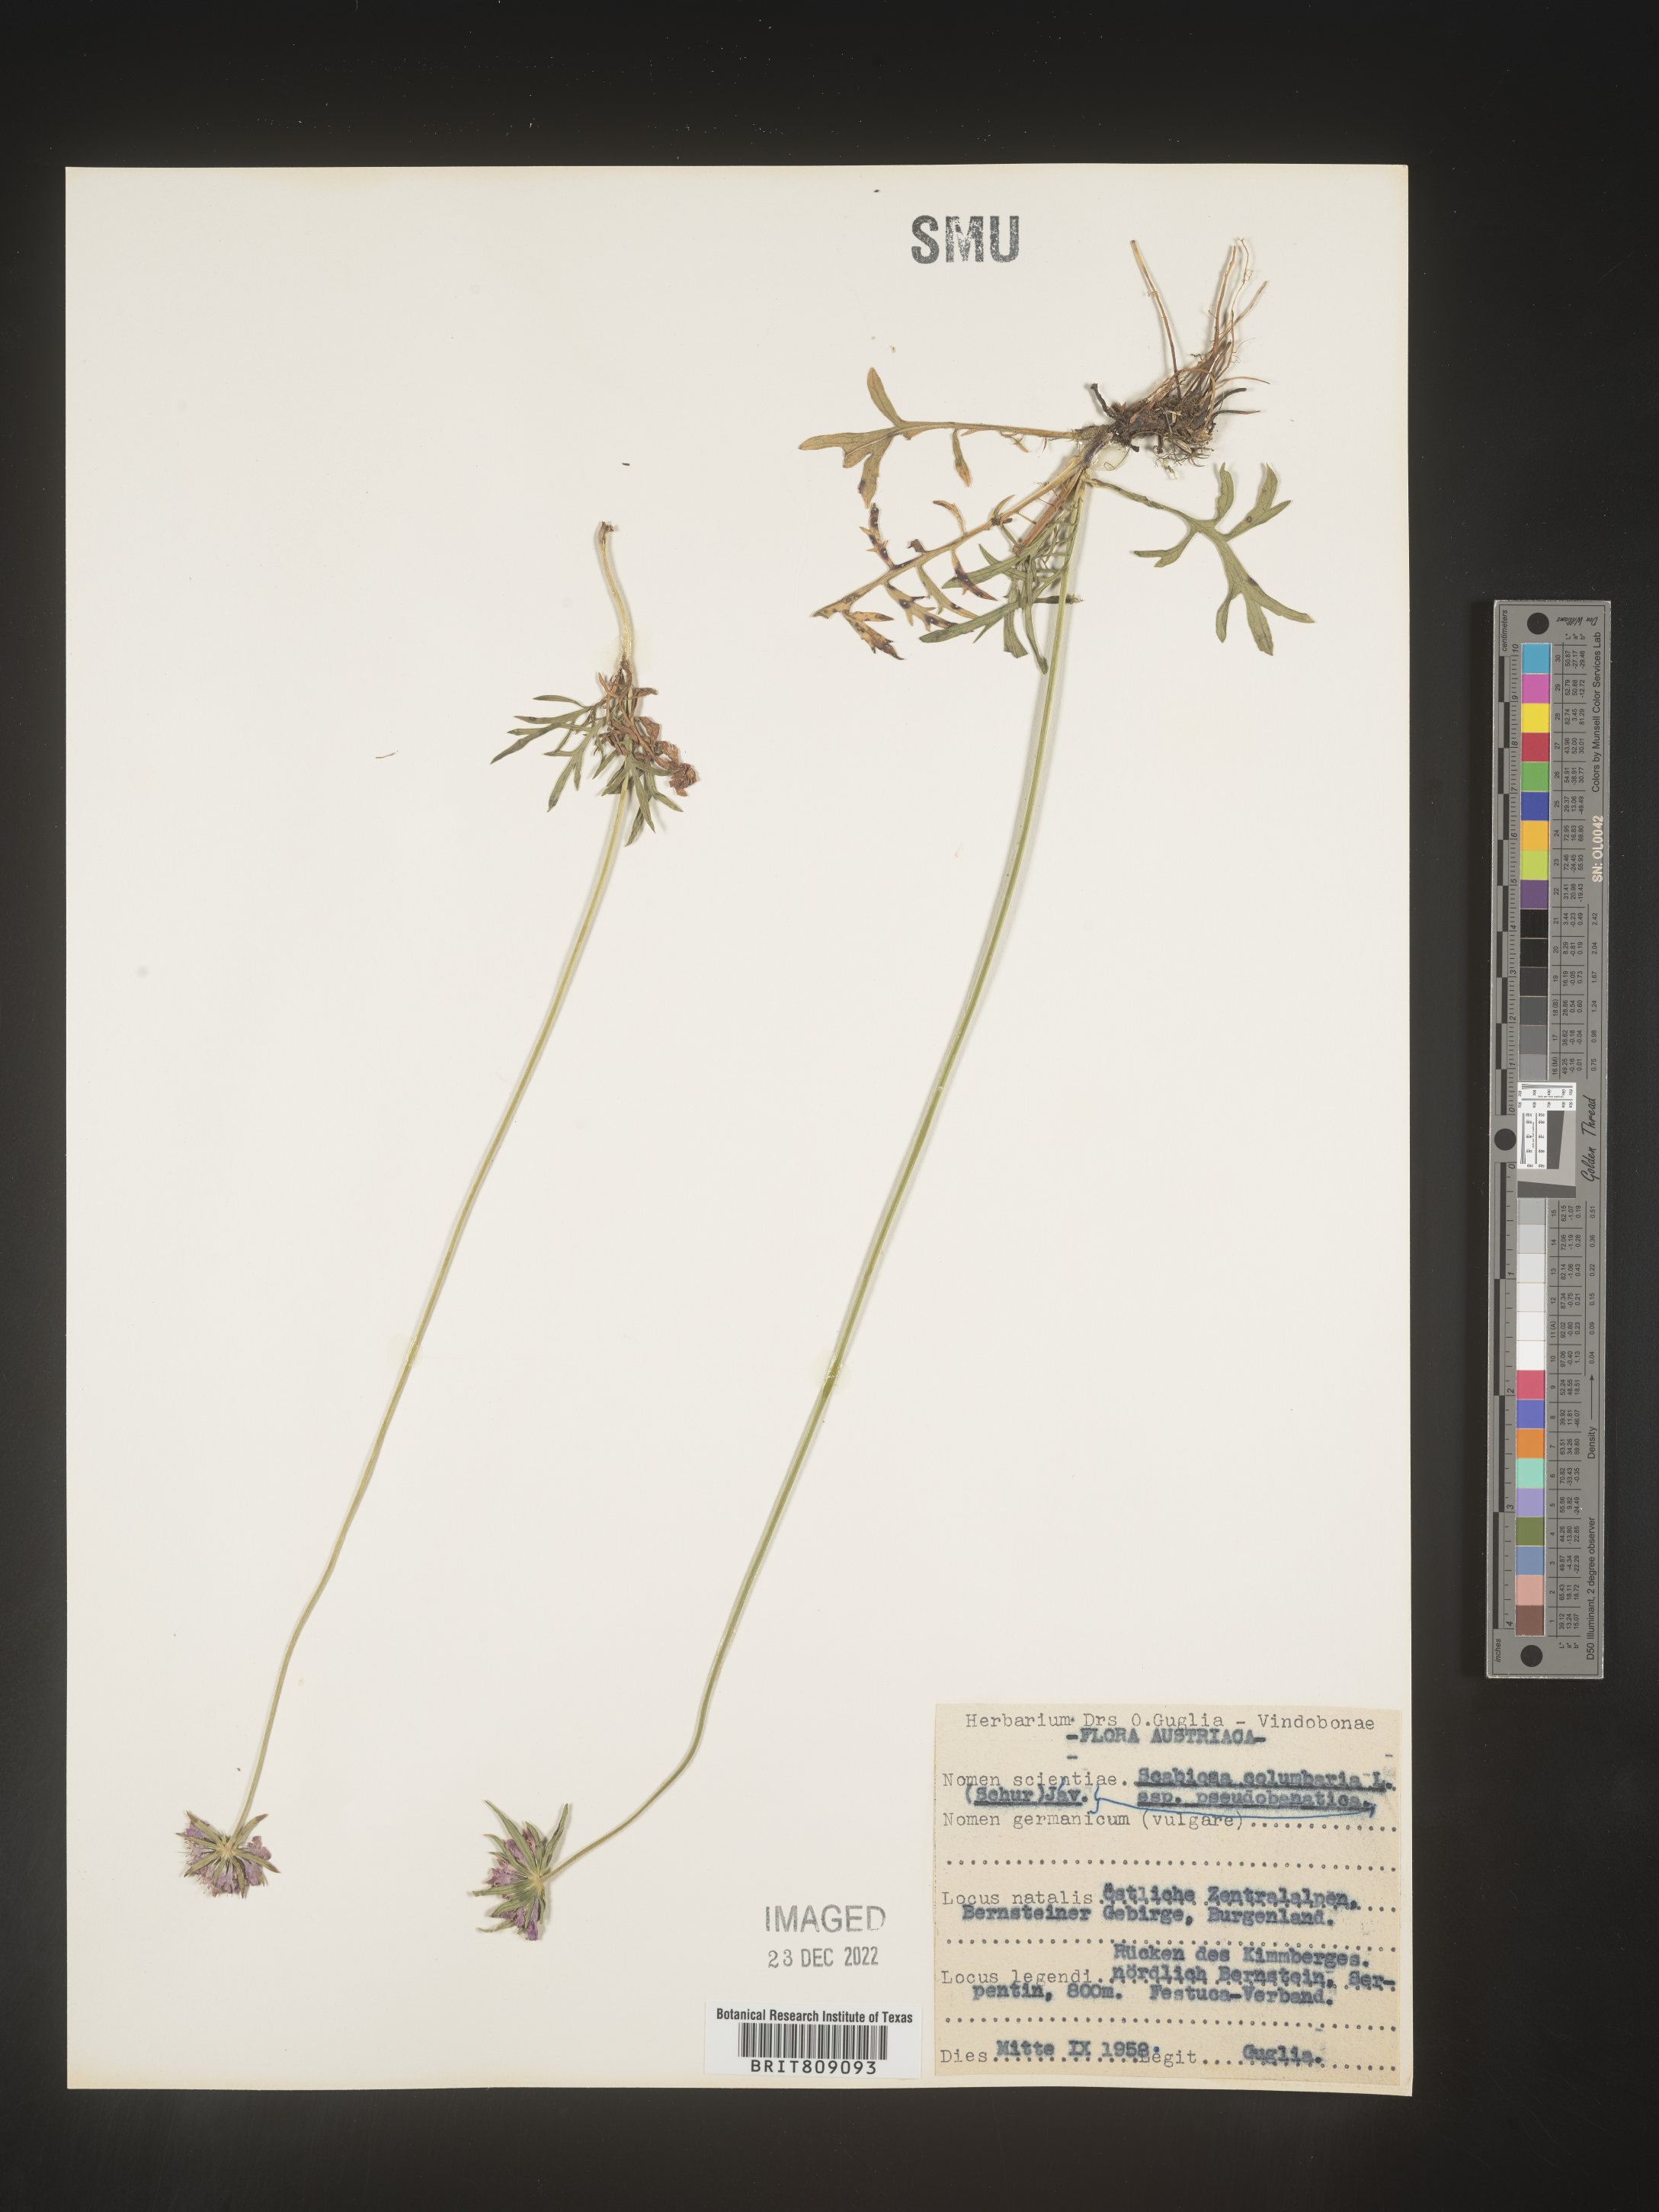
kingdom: Plantae
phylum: Tracheophyta
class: Magnoliopsida
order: Dipsacales
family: Caprifoliaceae
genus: Scabiosa
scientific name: Scabiosa
